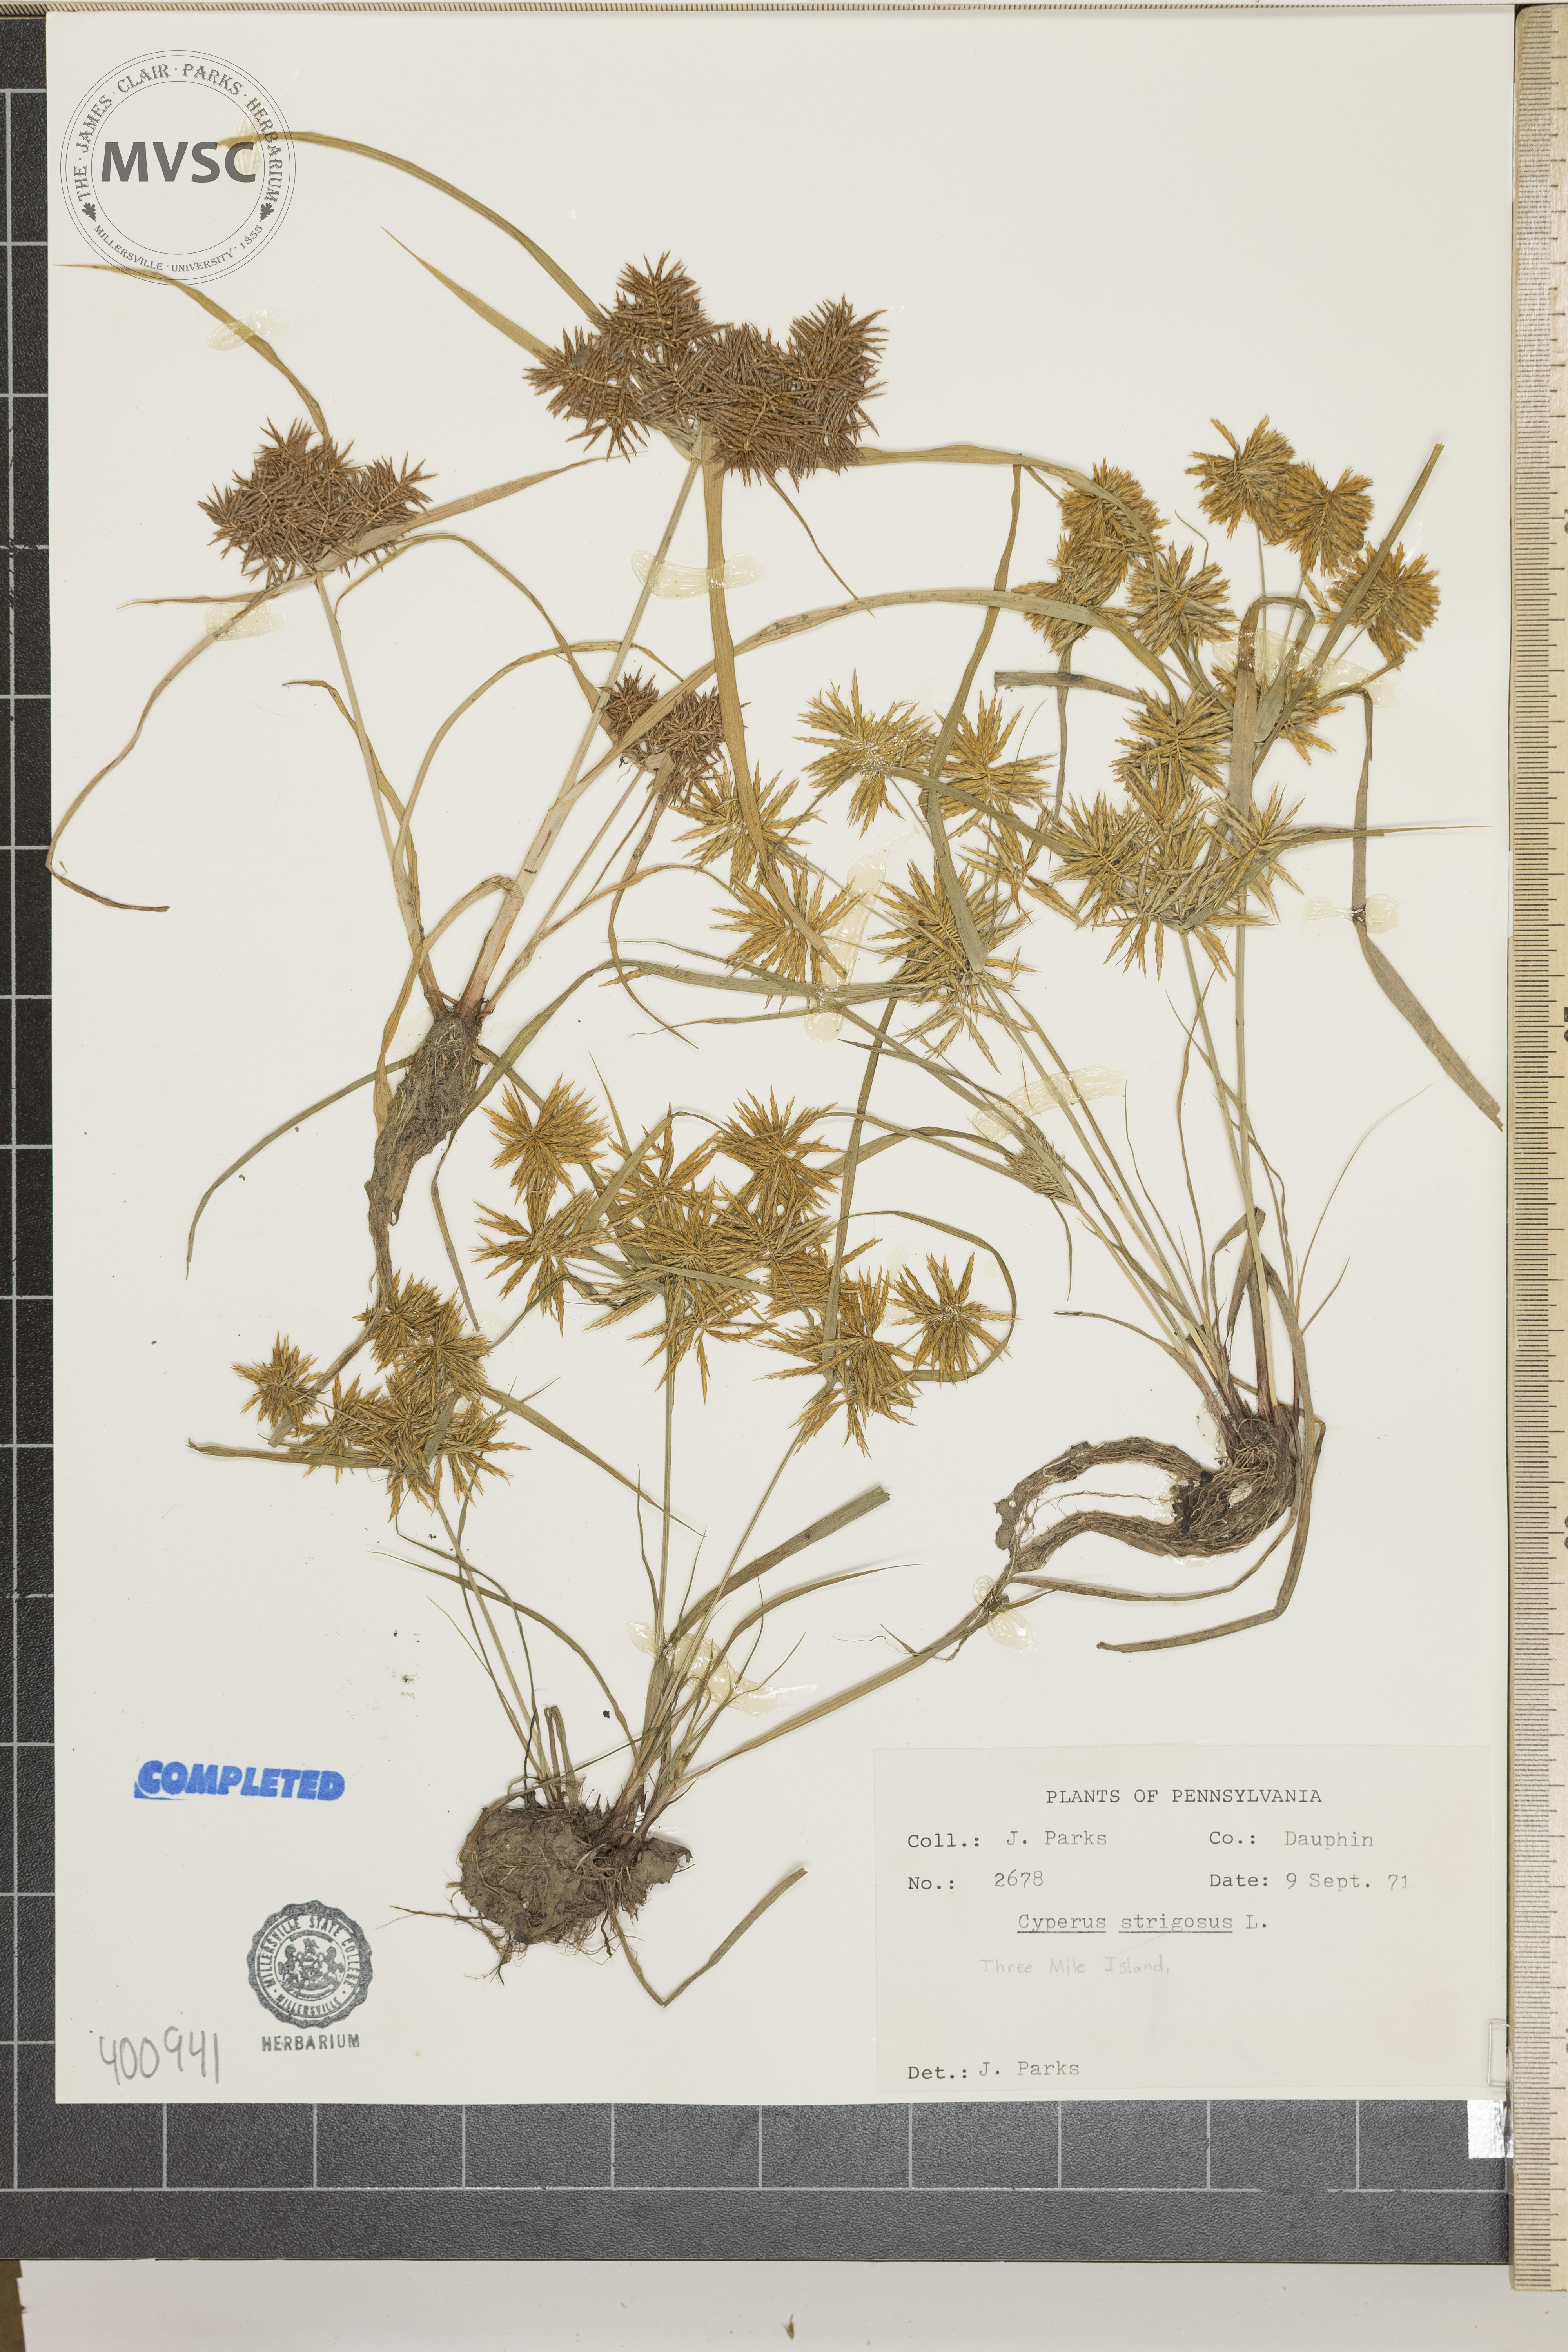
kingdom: Plantae
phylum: Tracheophyta
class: Liliopsida
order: Poales
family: Cyperaceae
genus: Cyperus
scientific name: Cyperus strigosus
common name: sedge
